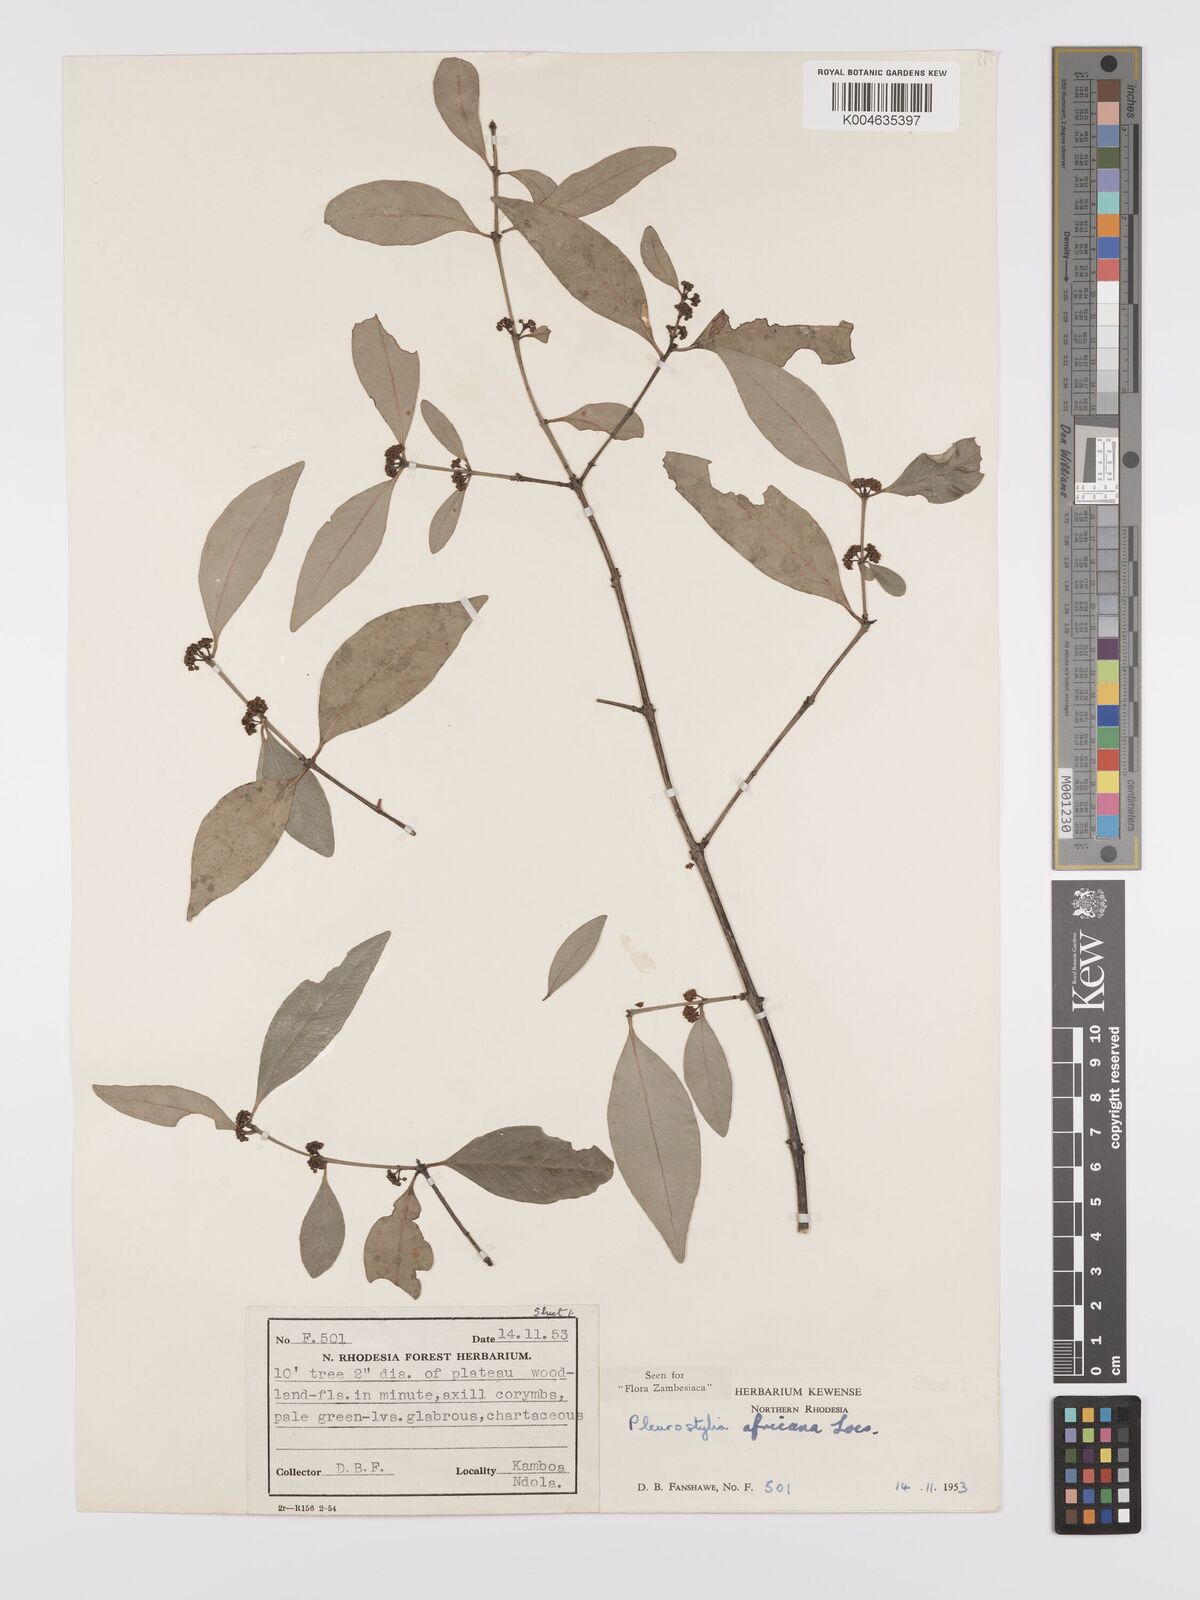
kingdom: Plantae
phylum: Tracheophyta
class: Magnoliopsida
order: Celastrales
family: Celastraceae
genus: Pleurostylia
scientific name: Pleurostylia africana
